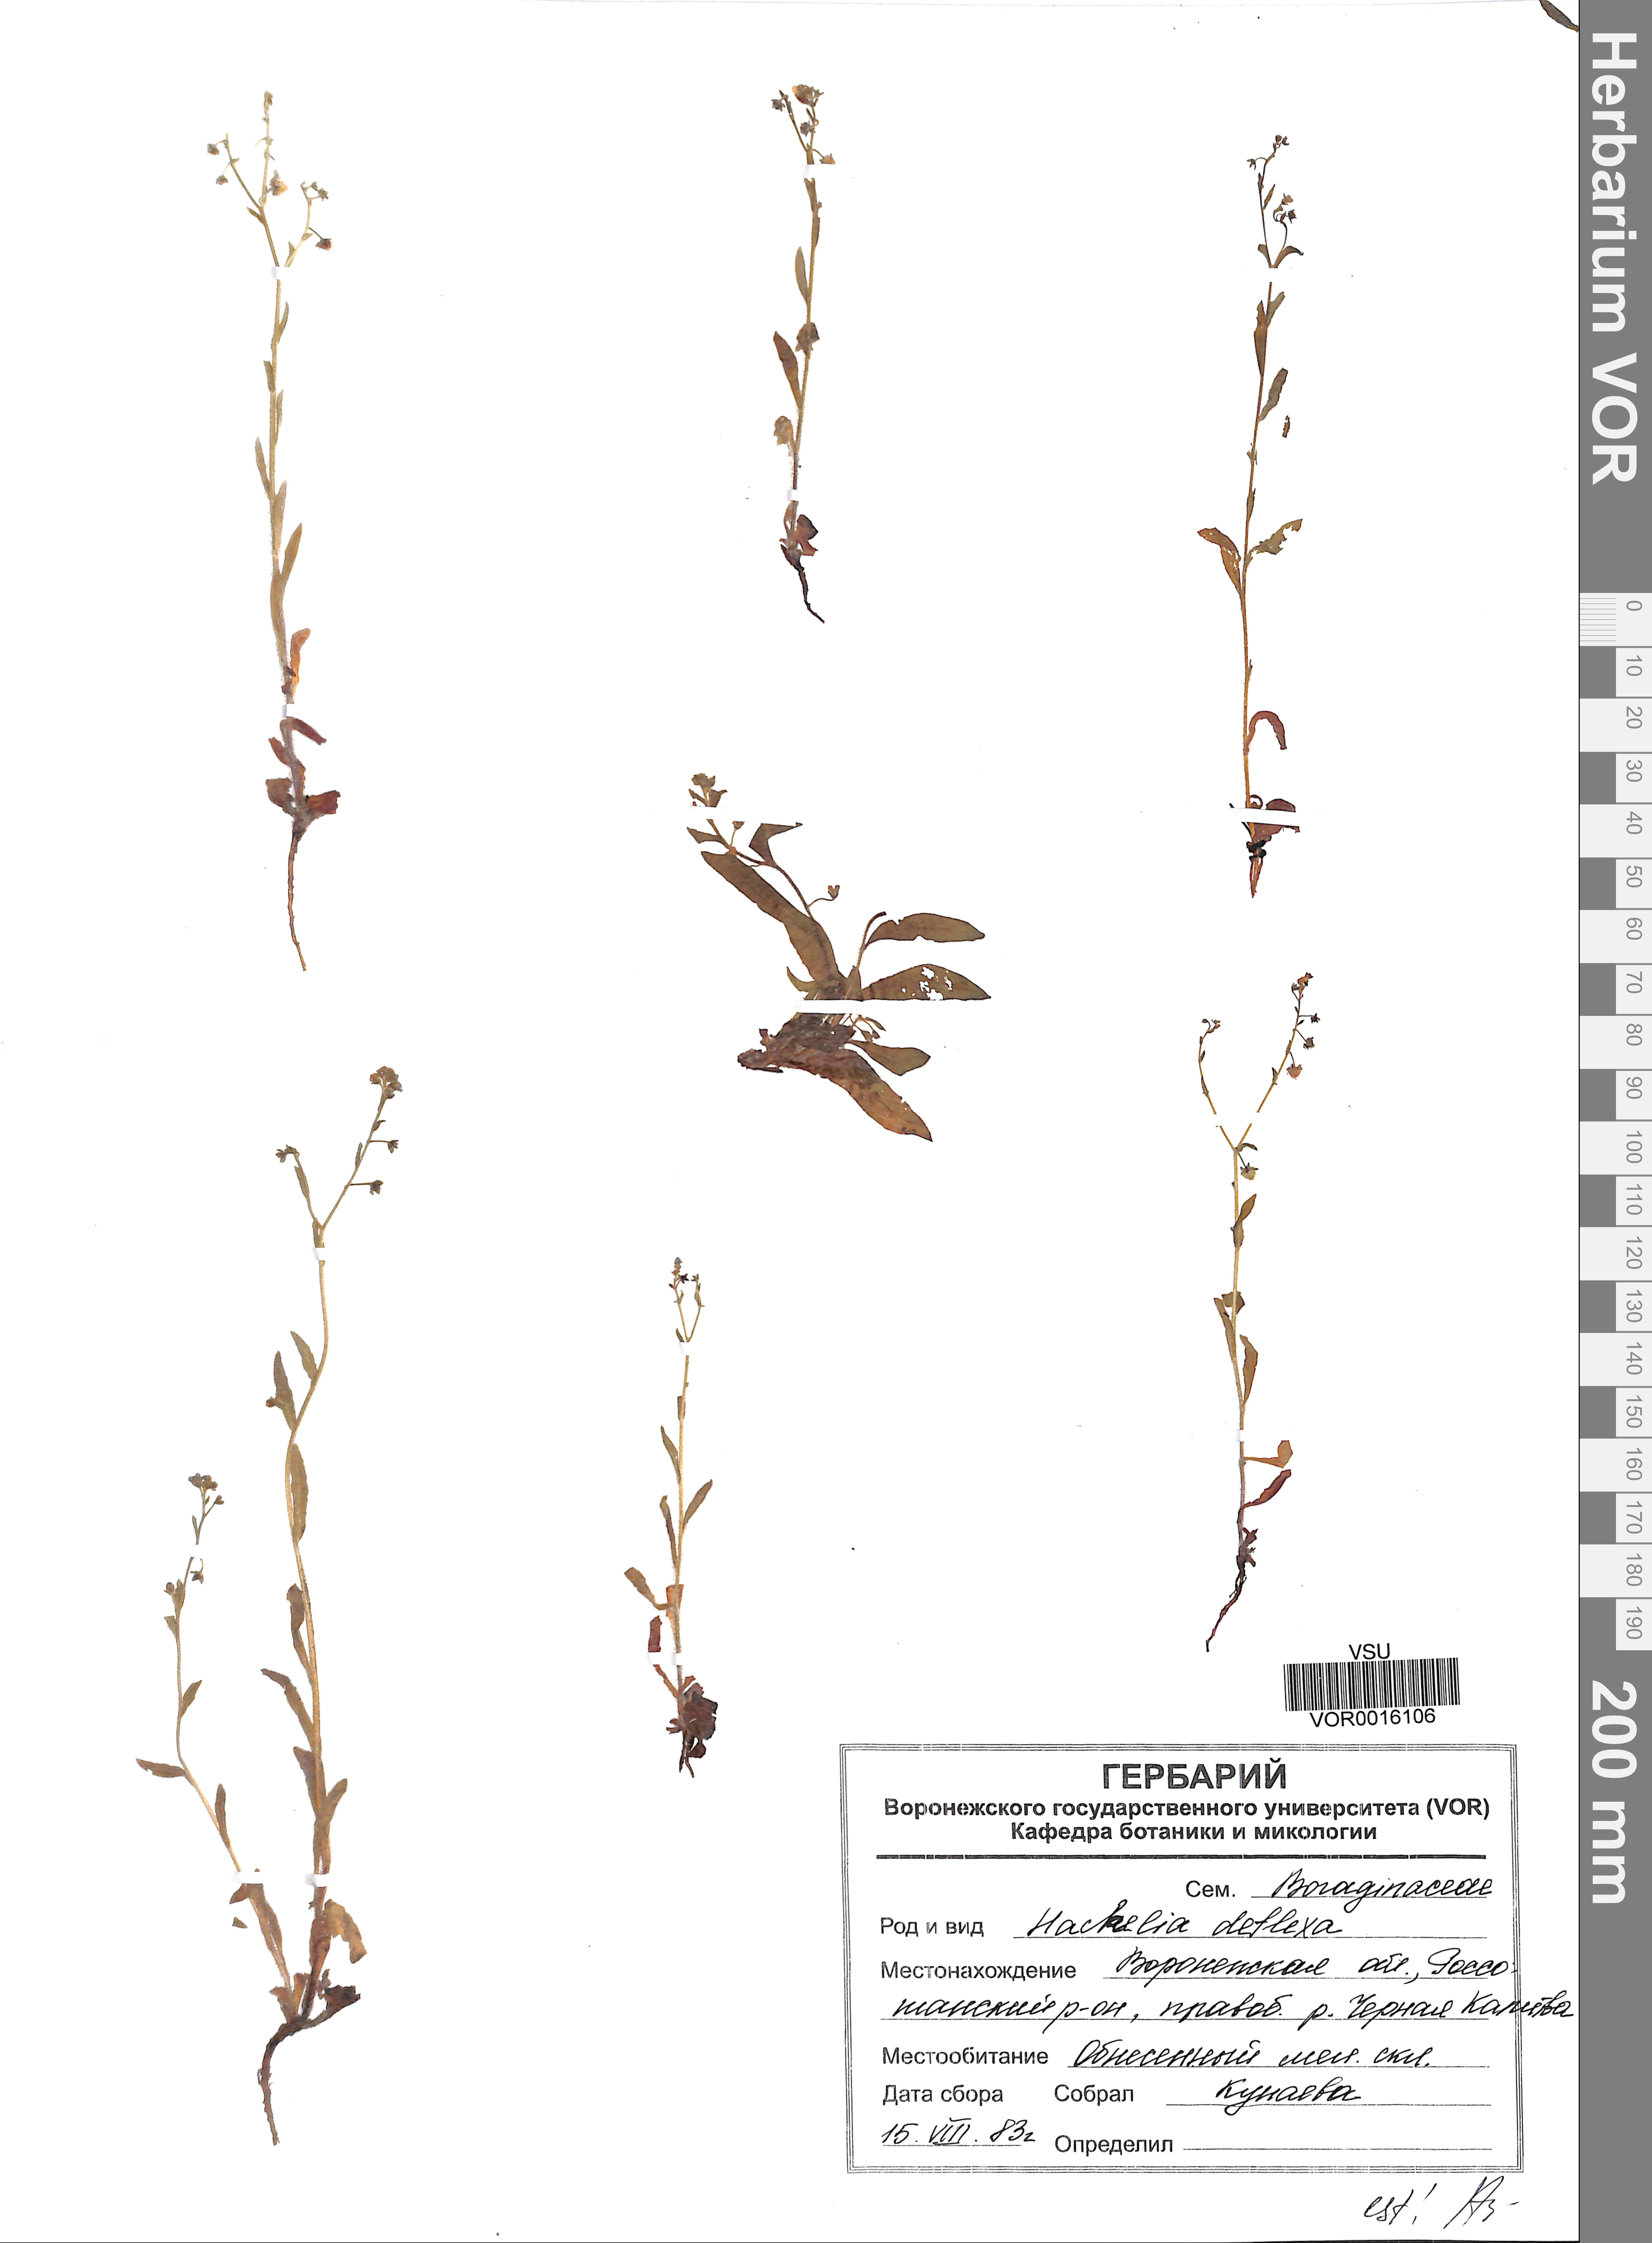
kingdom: Plantae
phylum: Tracheophyta
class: Magnoliopsida
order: Boraginales
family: Boraginaceae
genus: Hackelia
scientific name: Hackelia deflexa
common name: Nodding stickseed
